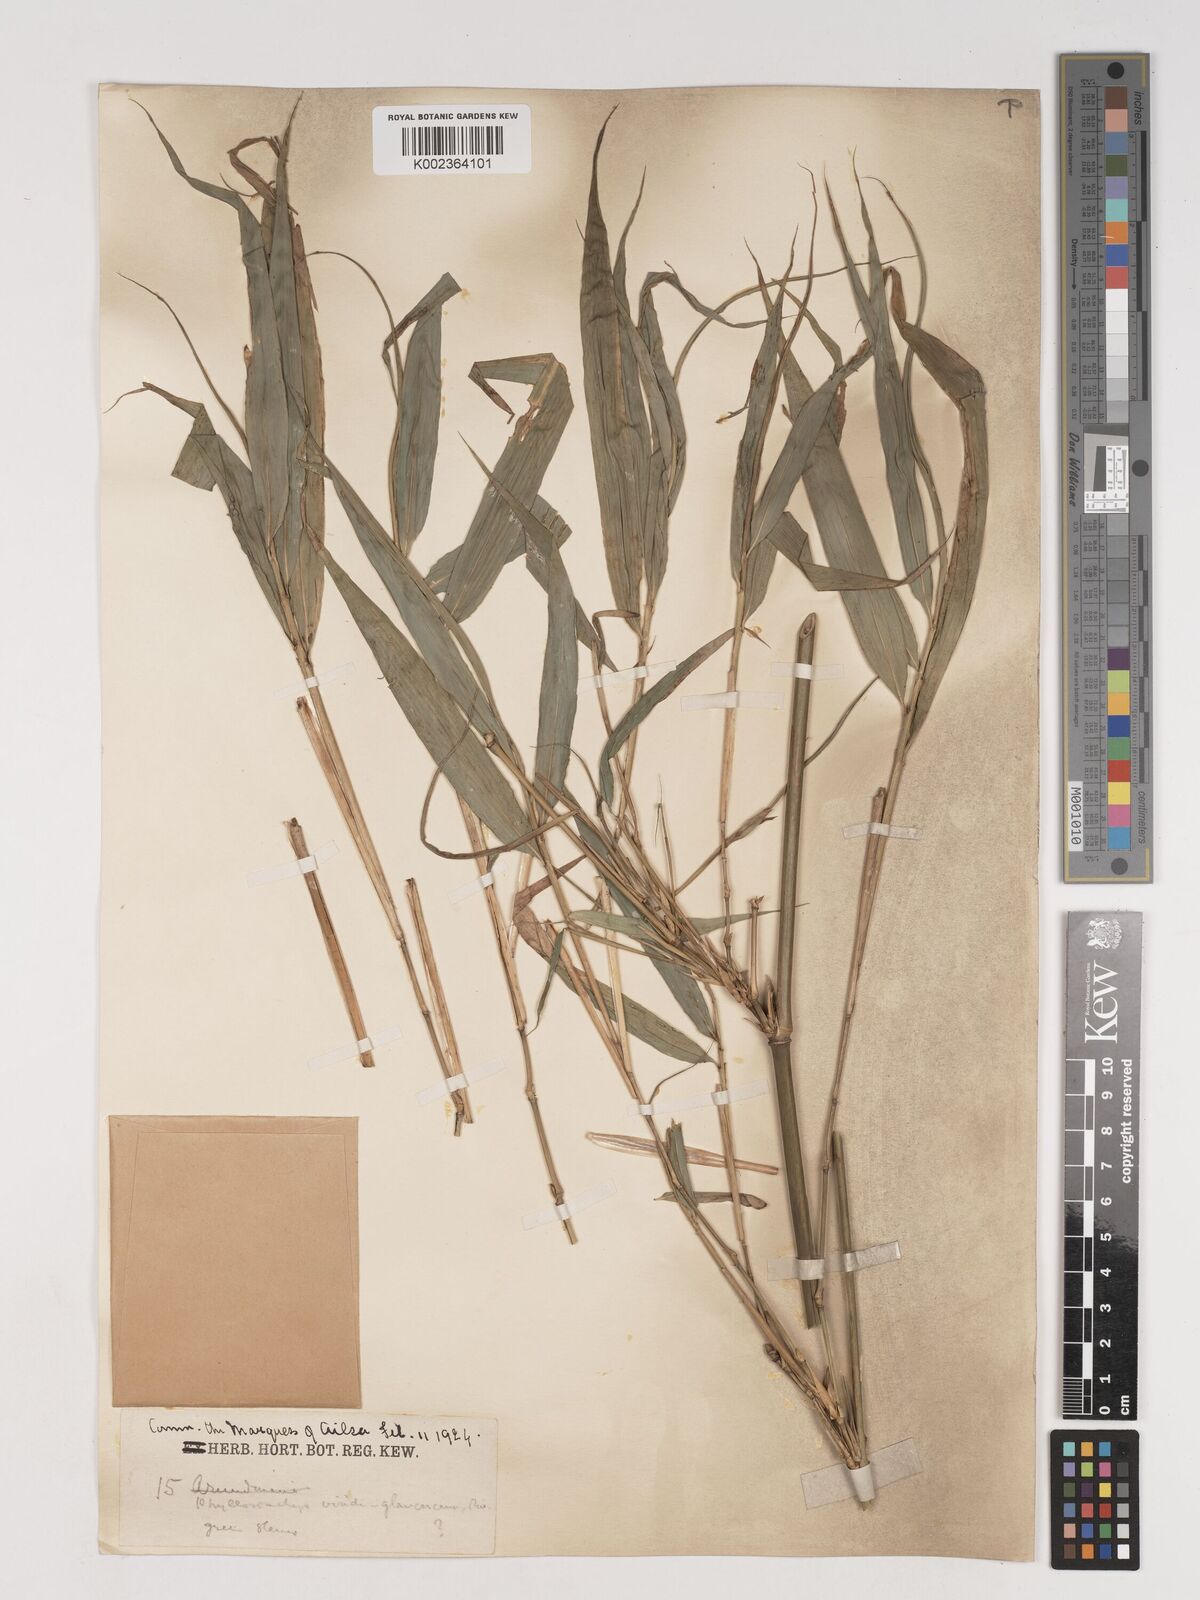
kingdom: Plantae
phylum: Tracheophyta
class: Liliopsida
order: Poales
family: Poaceae
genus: Phyllostachys
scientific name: Phyllostachys viridiglaucescens
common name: Greenwax golden bamboo
